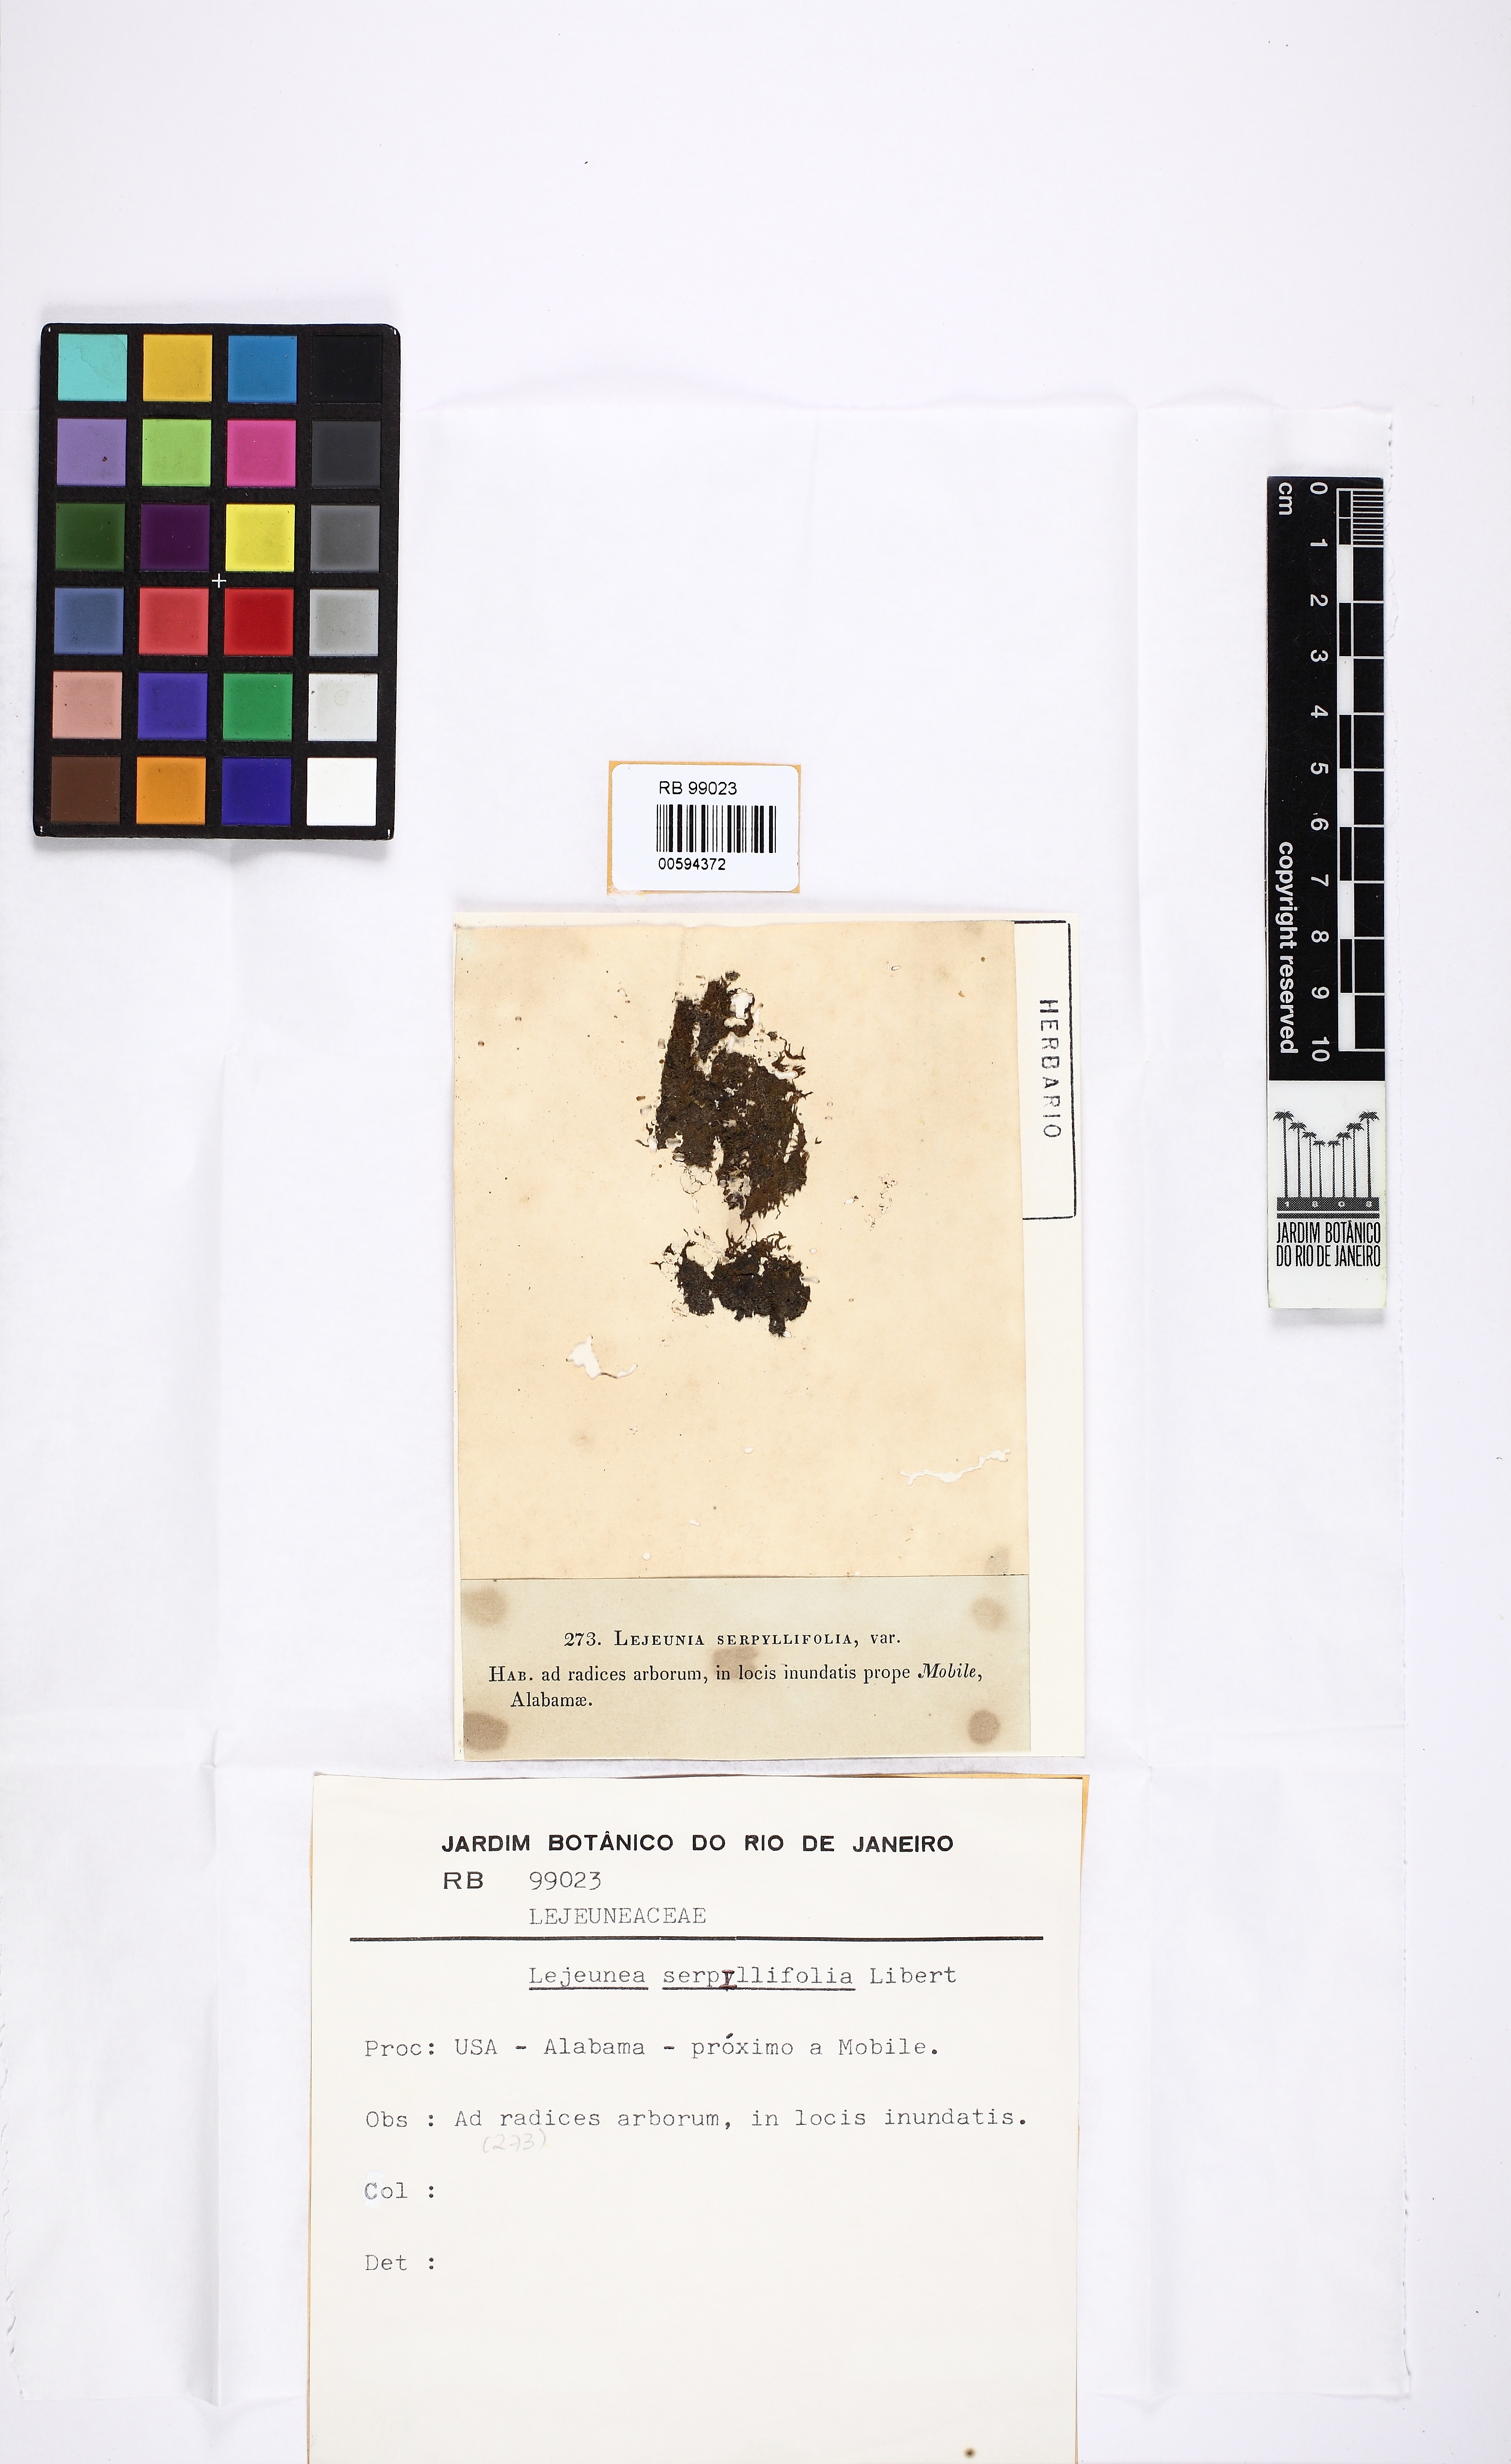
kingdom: Plantae
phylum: Marchantiophyta
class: Jungermanniopsida
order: Porellales
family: Lejeuneaceae
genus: Lejeunea
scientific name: Lejeunea cavifolia
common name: Least pouncewort
